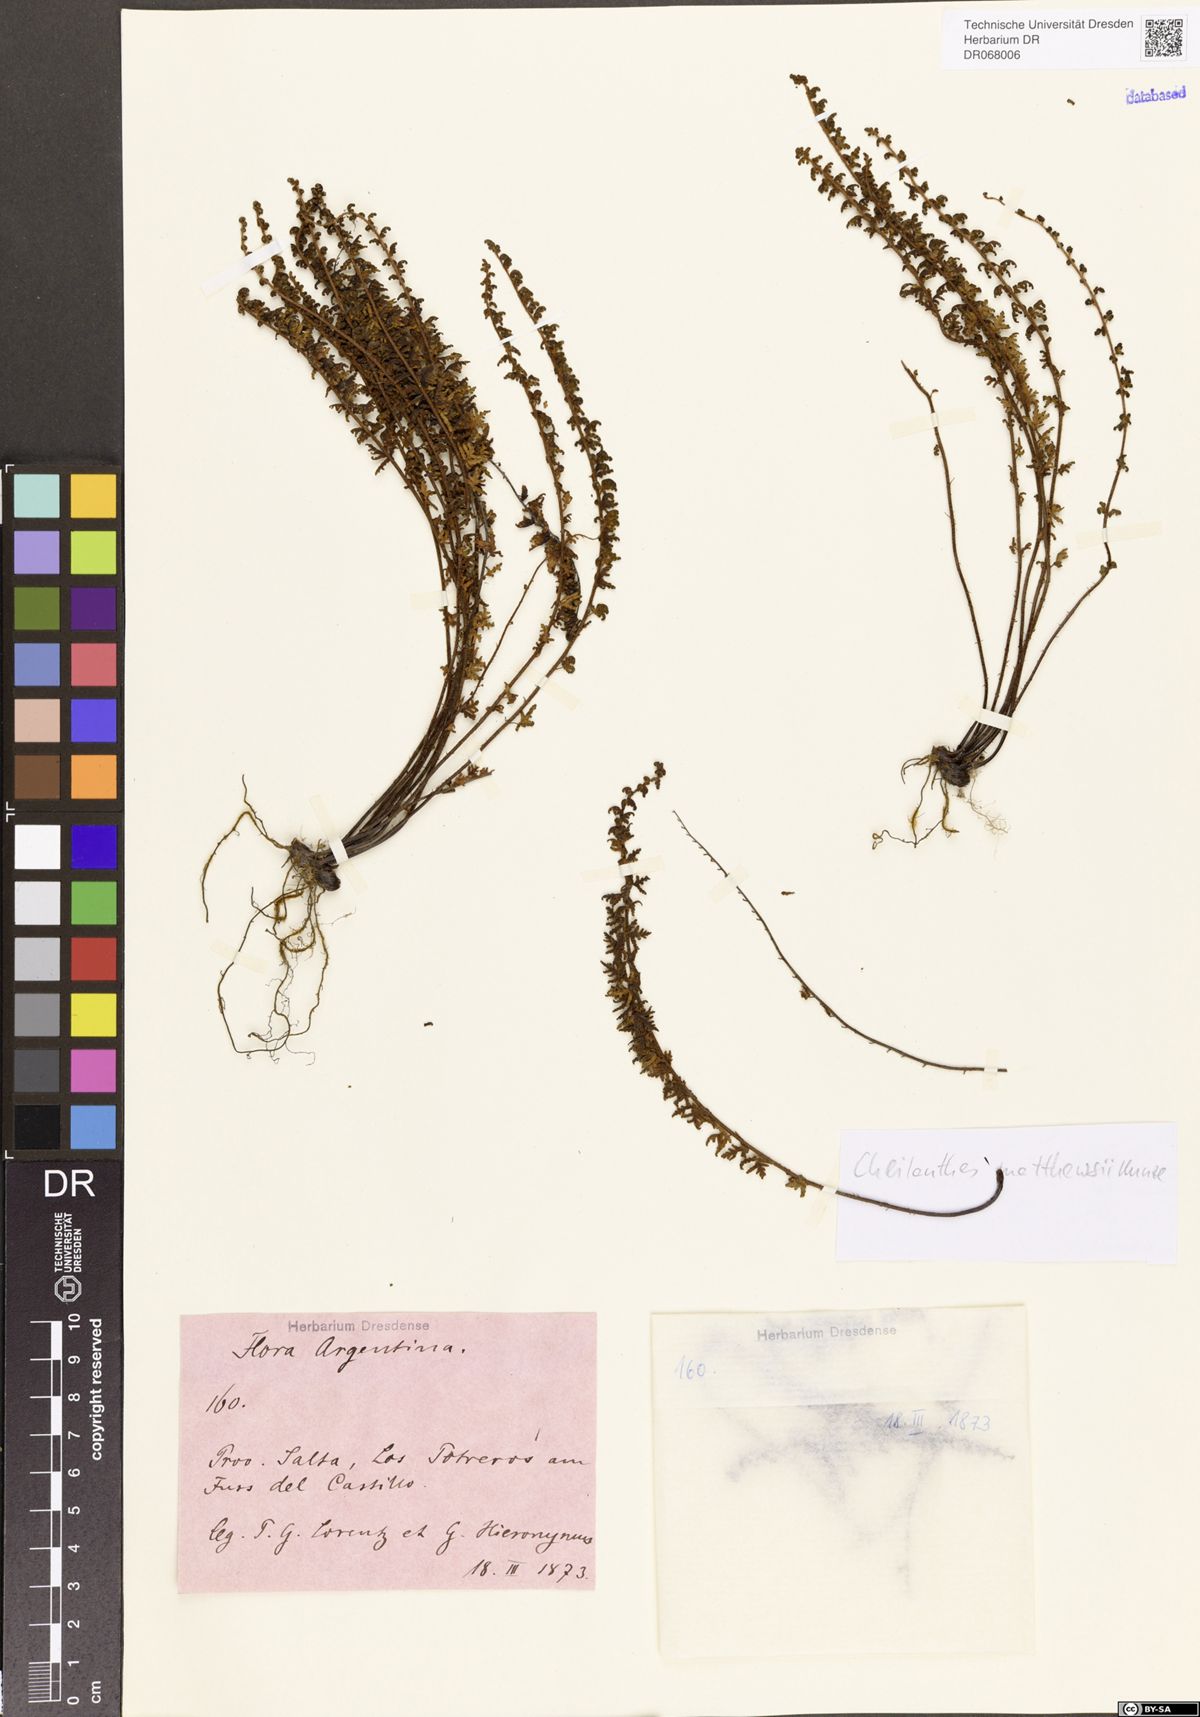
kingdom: Plantae
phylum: Tracheophyta
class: Polypodiopsida
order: Polypodiales
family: Pteridaceae
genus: Cheilanthes
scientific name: Cheilanthes pruinata
